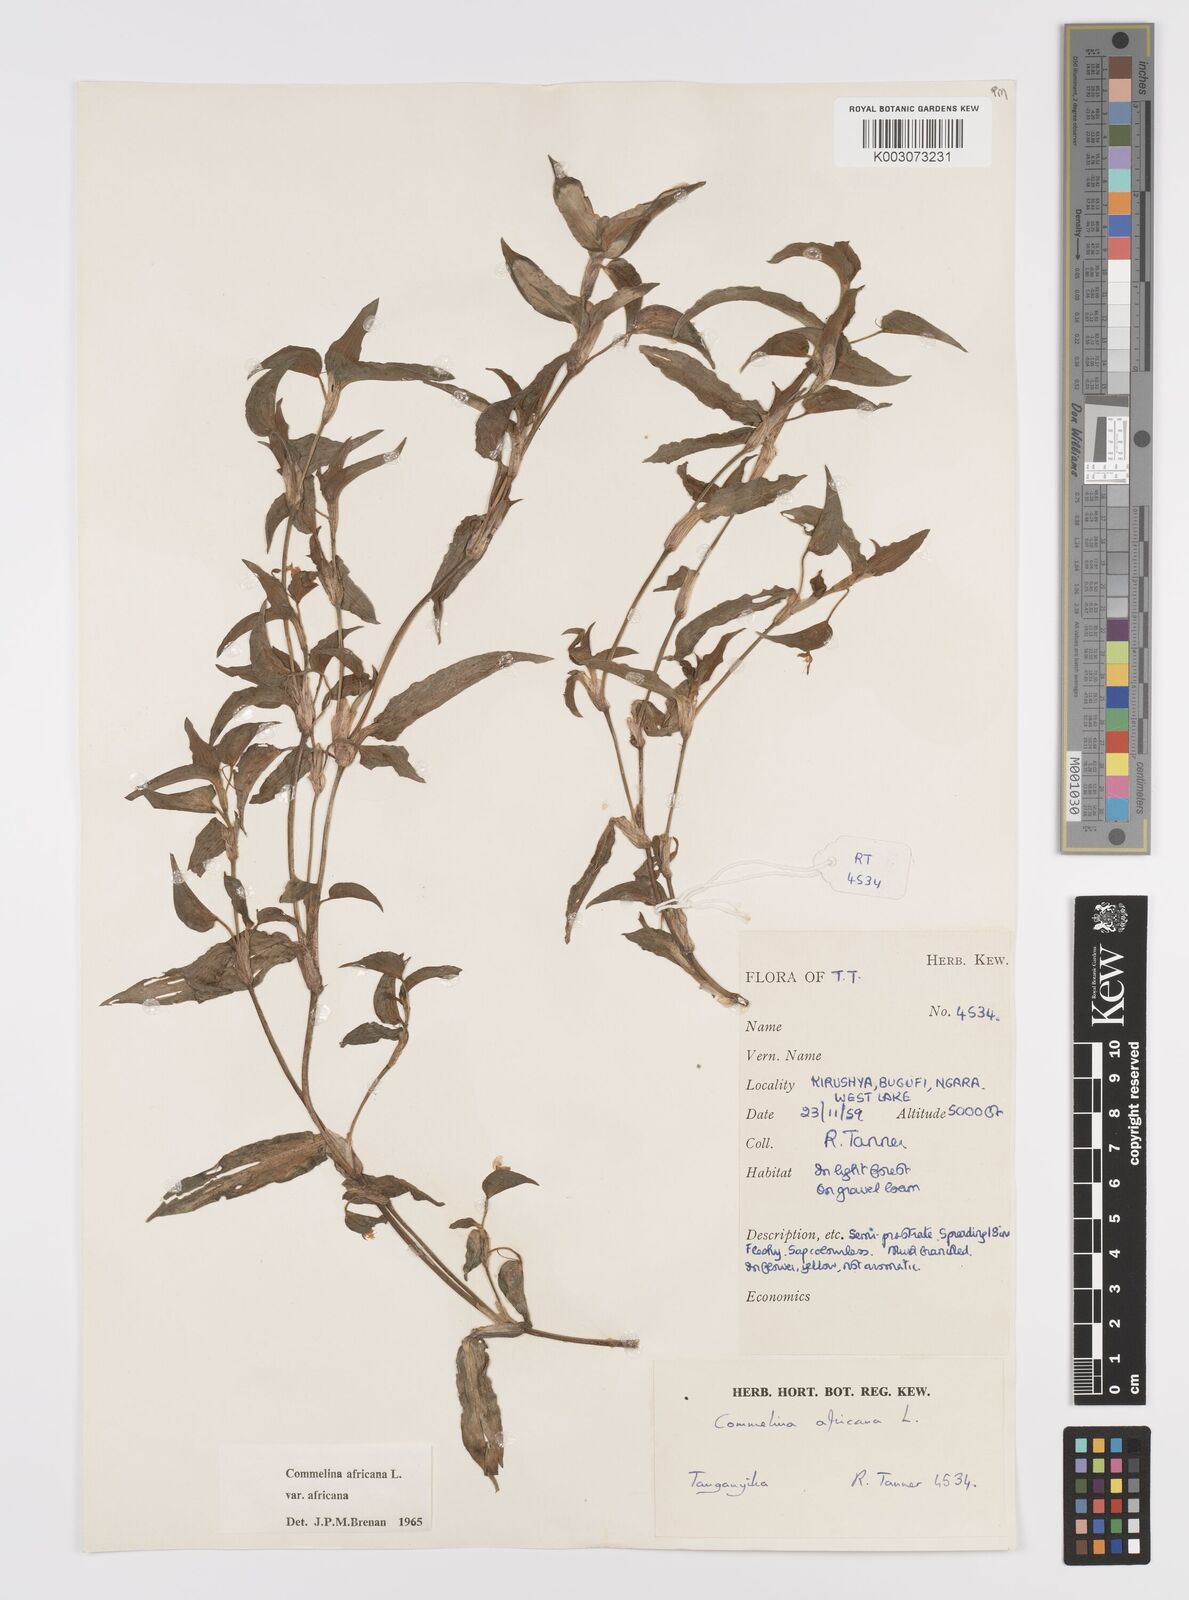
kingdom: Plantae
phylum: Tracheophyta
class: Liliopsida
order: Commelinales
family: Commelinaceae
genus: Commelina
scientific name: Commelina africana
